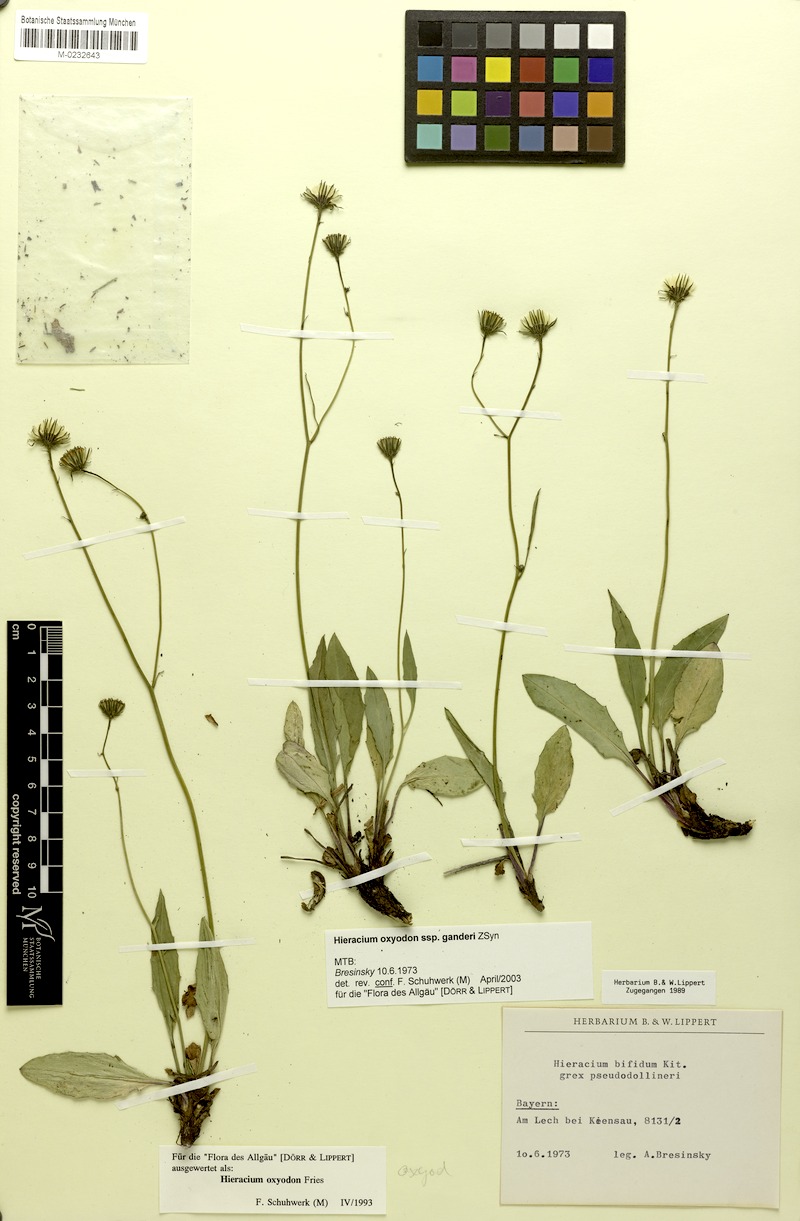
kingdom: Plantae
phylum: Tracheophyta
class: Magnoliopsida
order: Asterales
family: Asteraceae
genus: Hieracium
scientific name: Hieracium oxyodon
